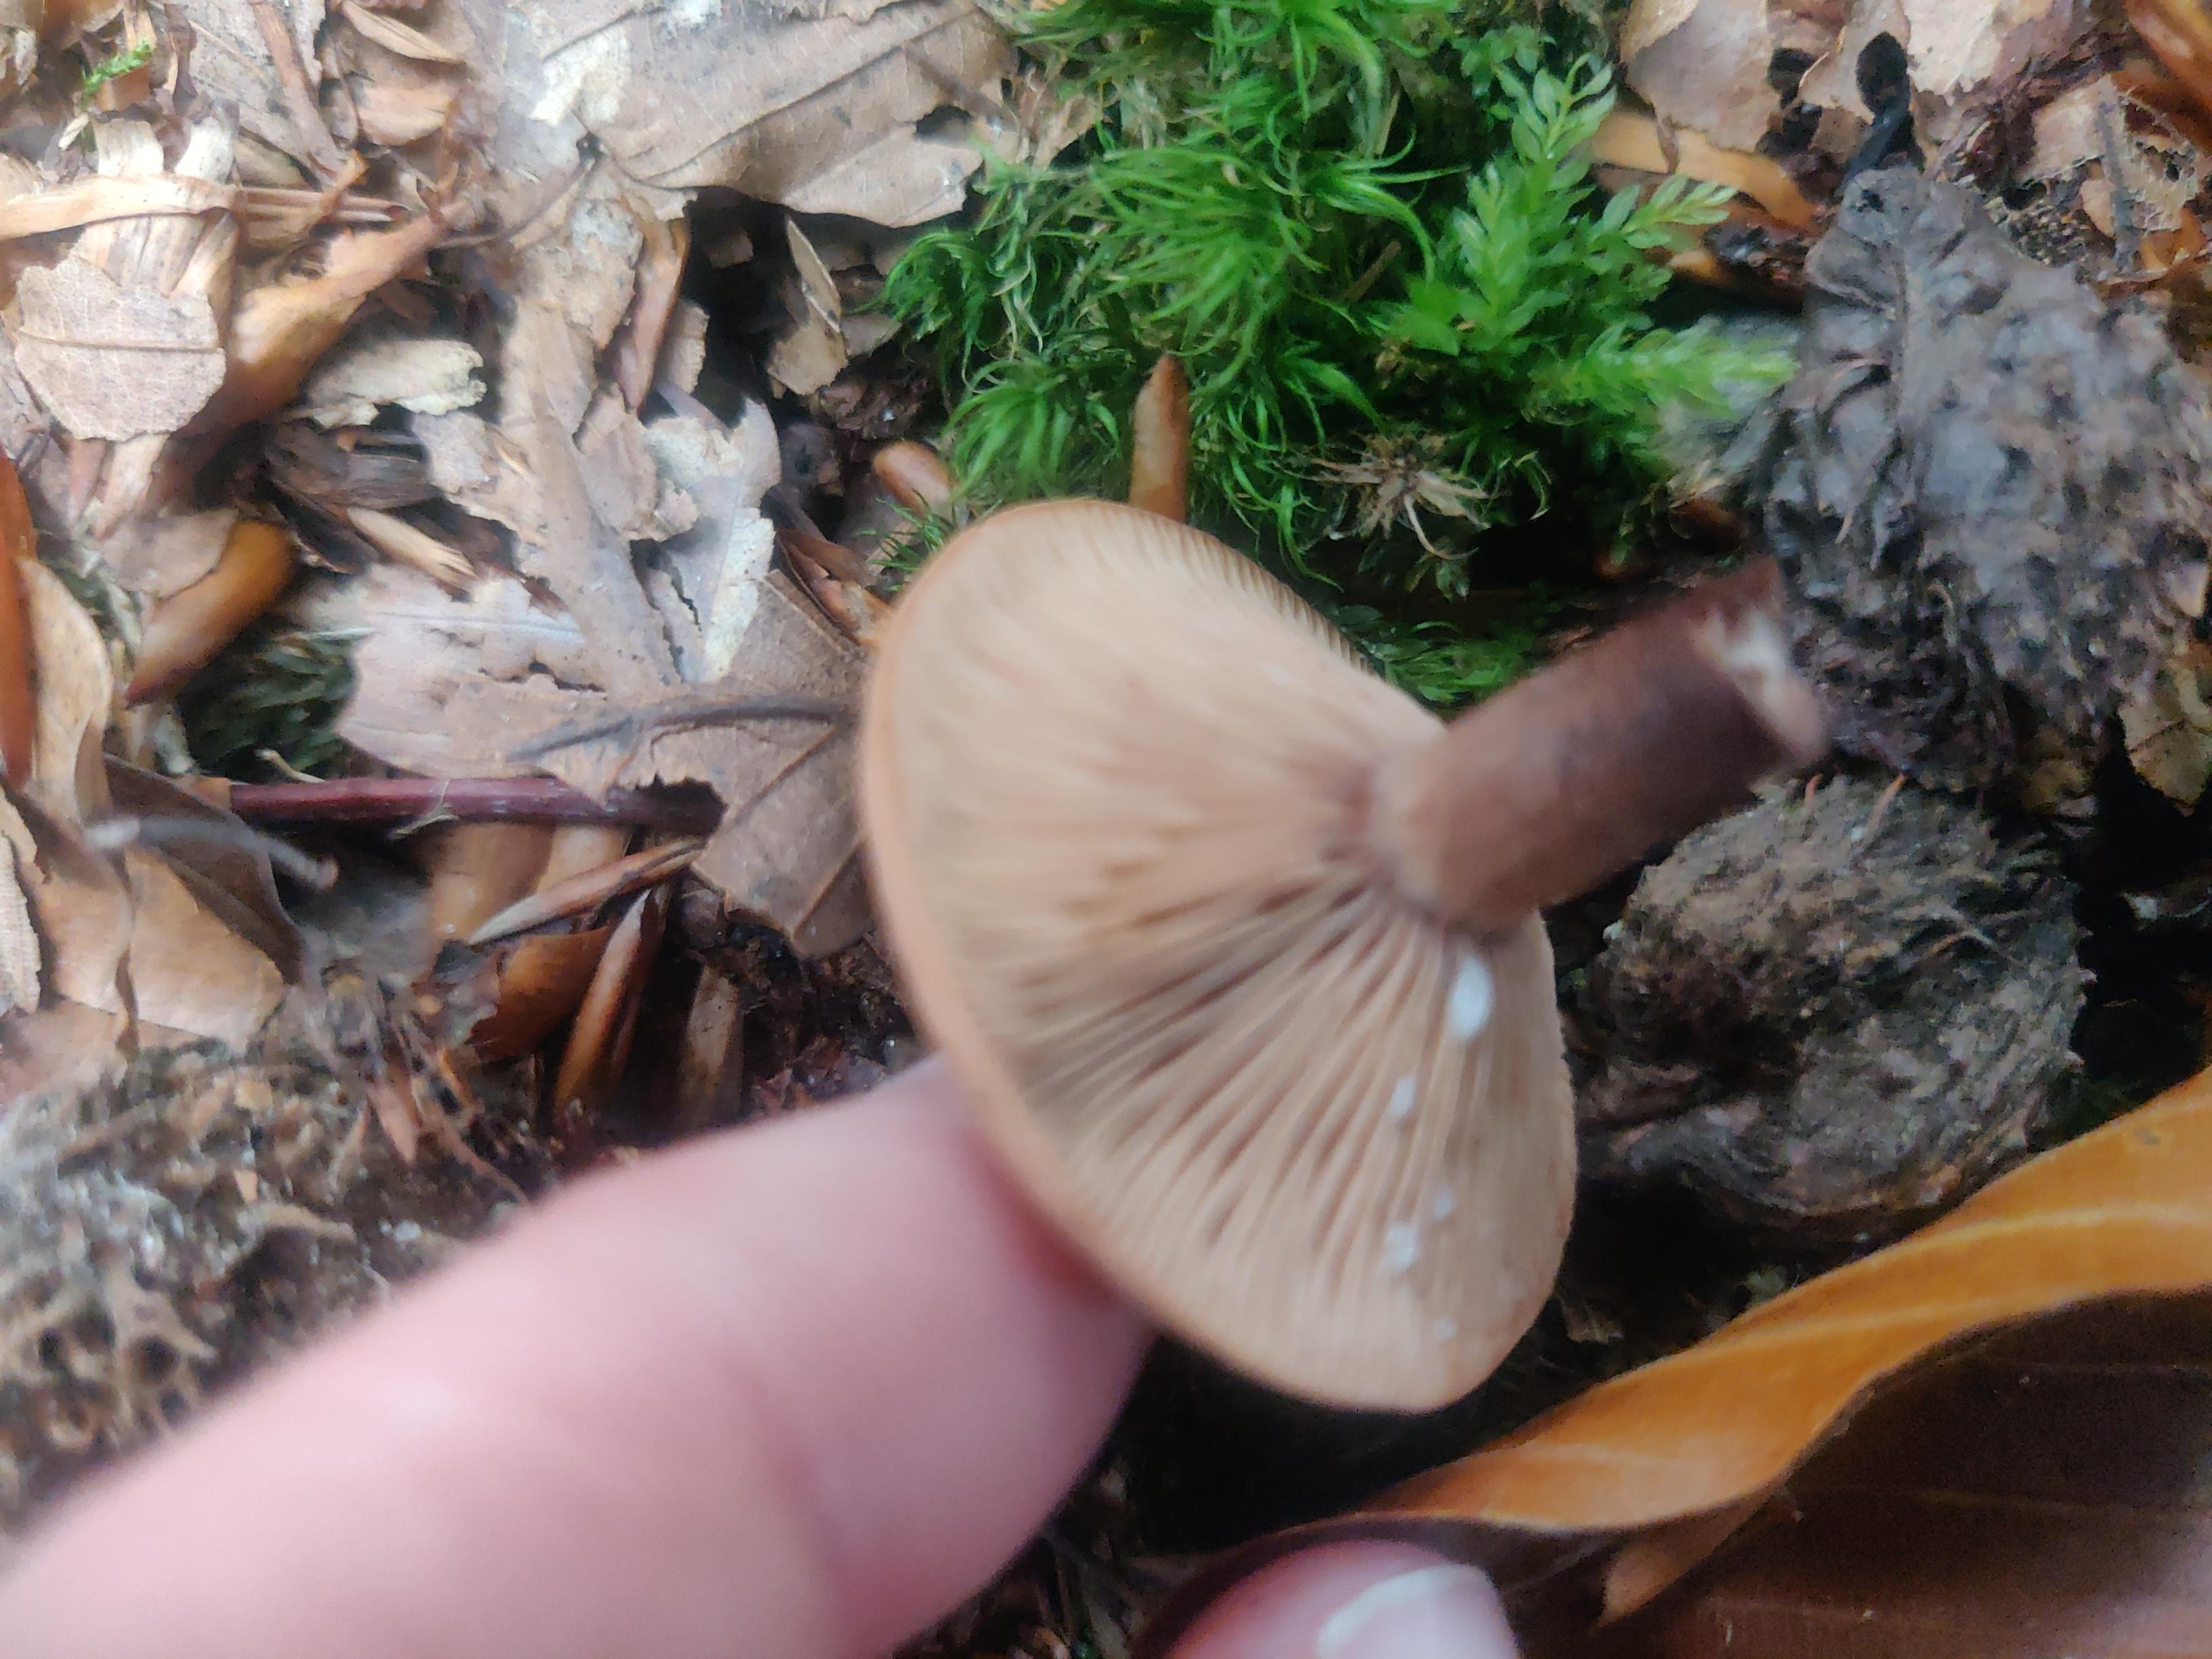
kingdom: Fungi
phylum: Basidiomycota
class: Agaricomycetes
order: Russulales
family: Russulaceae
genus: Lactarius
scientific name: Lactarius
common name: mælkehat
